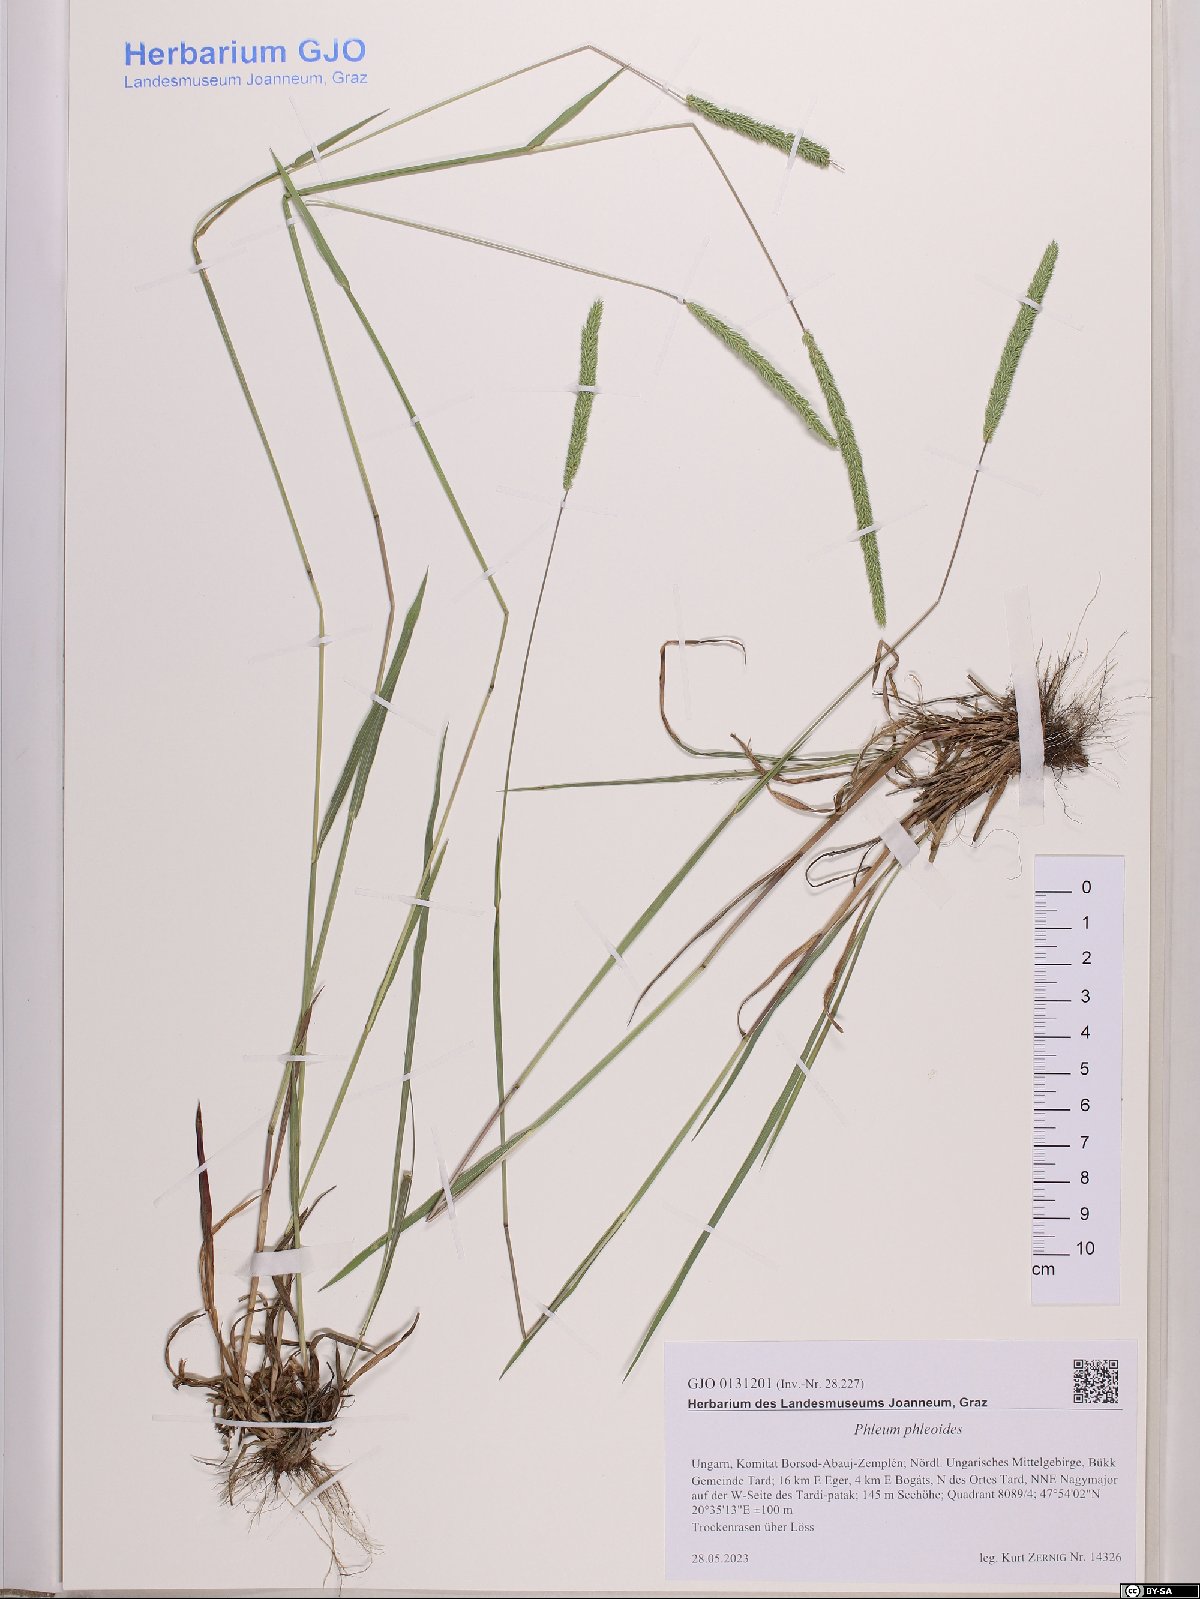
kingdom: Plantae
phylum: Tracheophyta
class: Liliopsida
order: Poales
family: Poaceae
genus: Phleum
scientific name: Phleum phleoides
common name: Purple-stem cat's-tail
